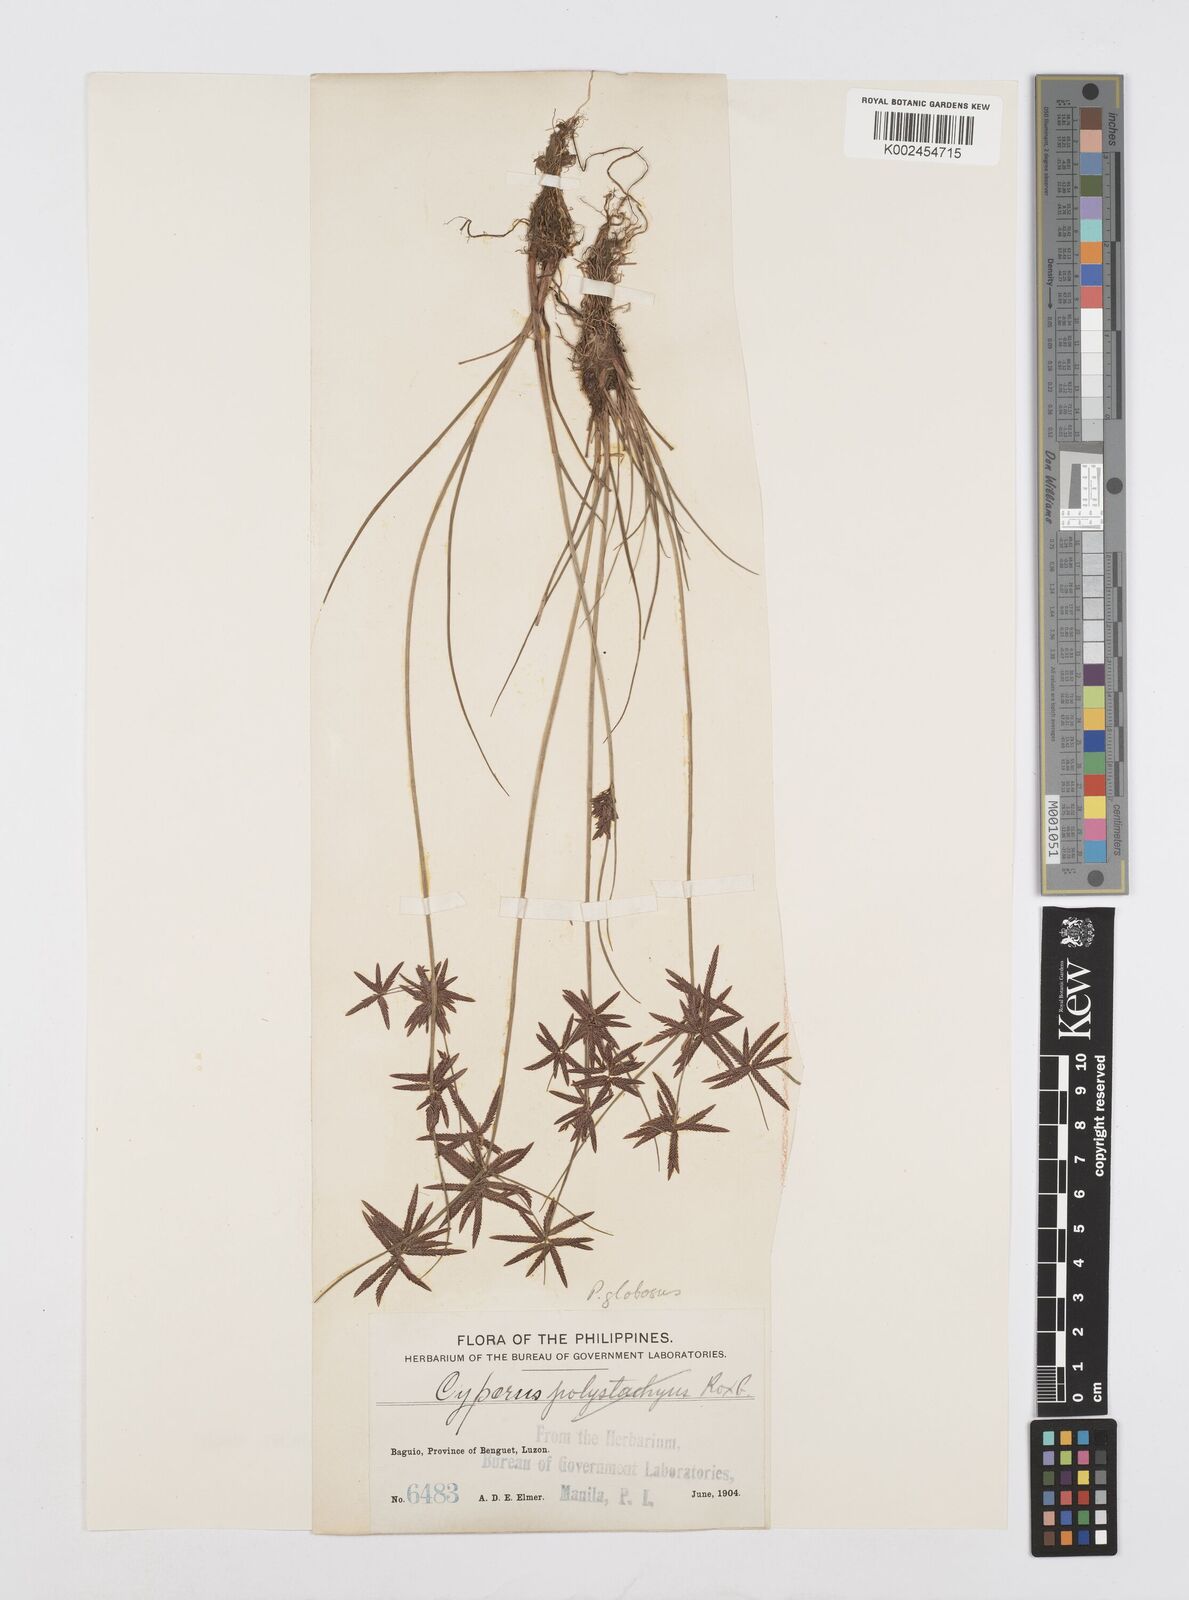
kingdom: Plantae
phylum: Tracheophyta
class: Liliopsida
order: Poales
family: Cyperaceae
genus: Cyperus
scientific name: Cyperus flavidus
